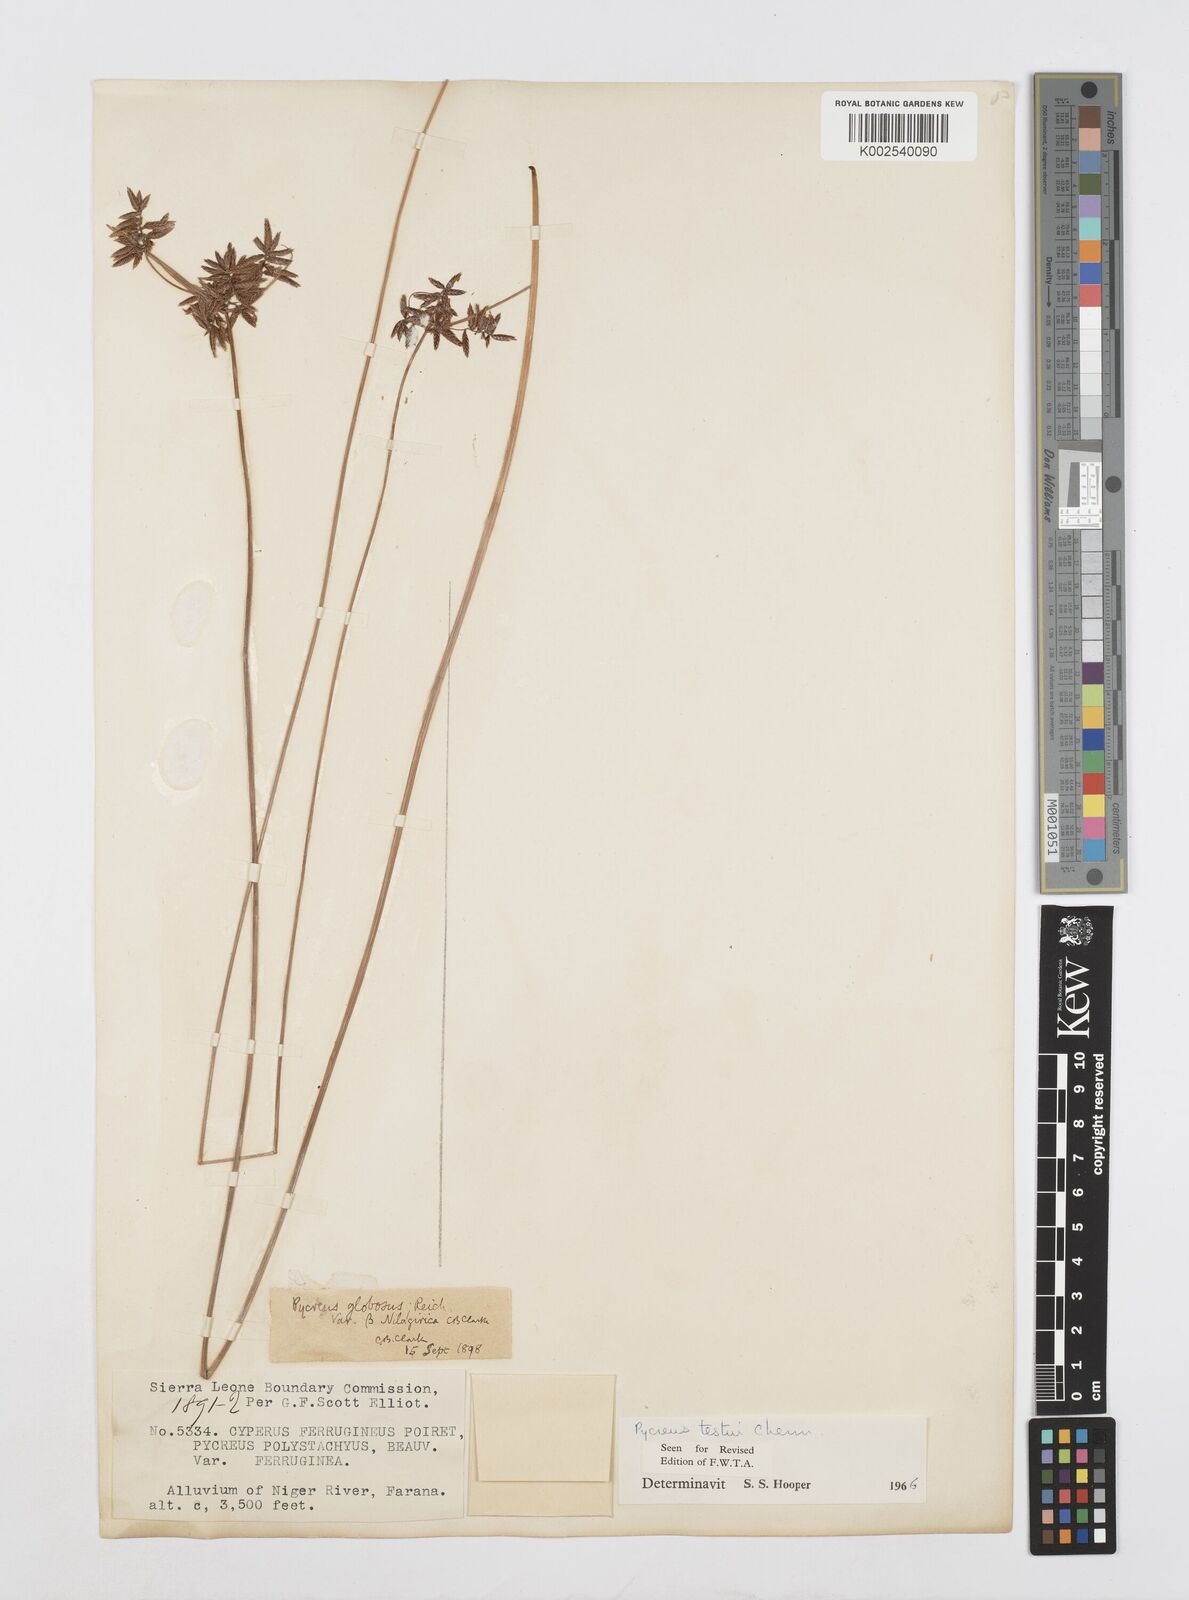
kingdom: Plantae
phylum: Tracheophyta
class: Liliopsida
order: Poales
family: Cyperaceae
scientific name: Cyperaceae
